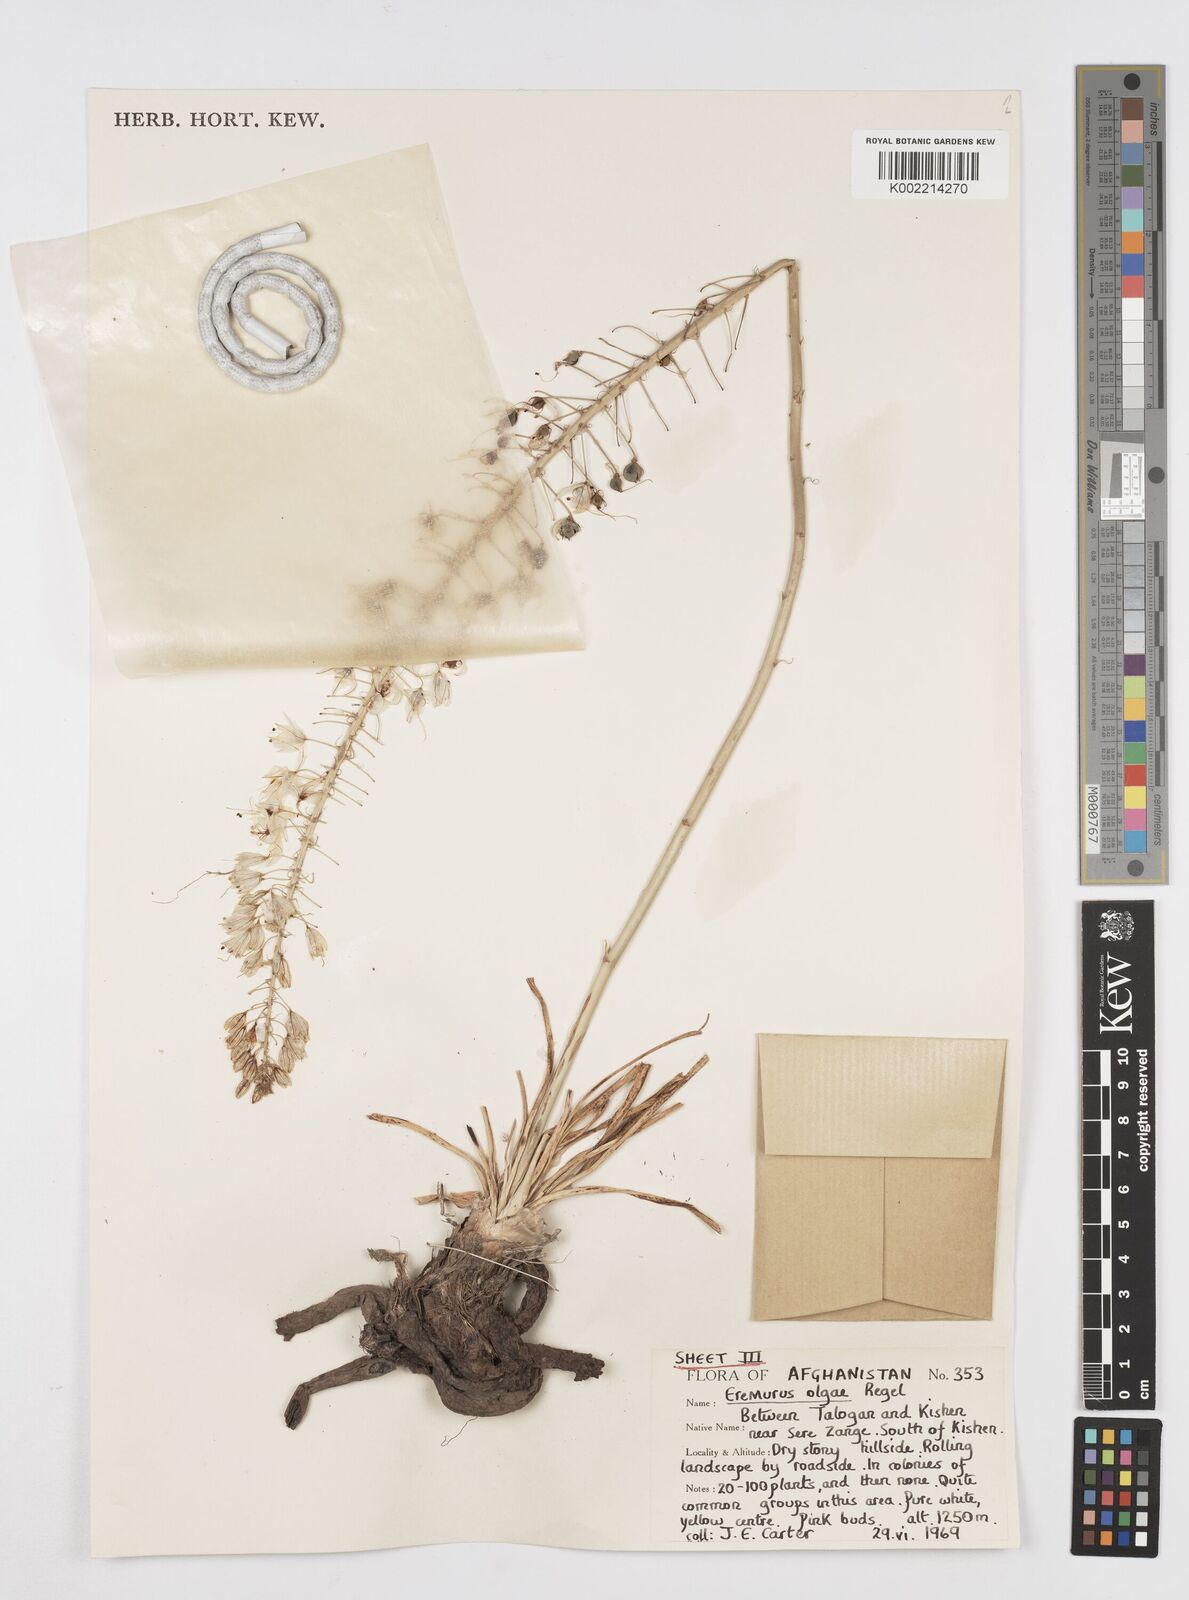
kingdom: Plantae
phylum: Tracheophyta
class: Liliopsida
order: Asparagales
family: Asphodelaceae
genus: Eremurus
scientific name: Eremurus olgae
